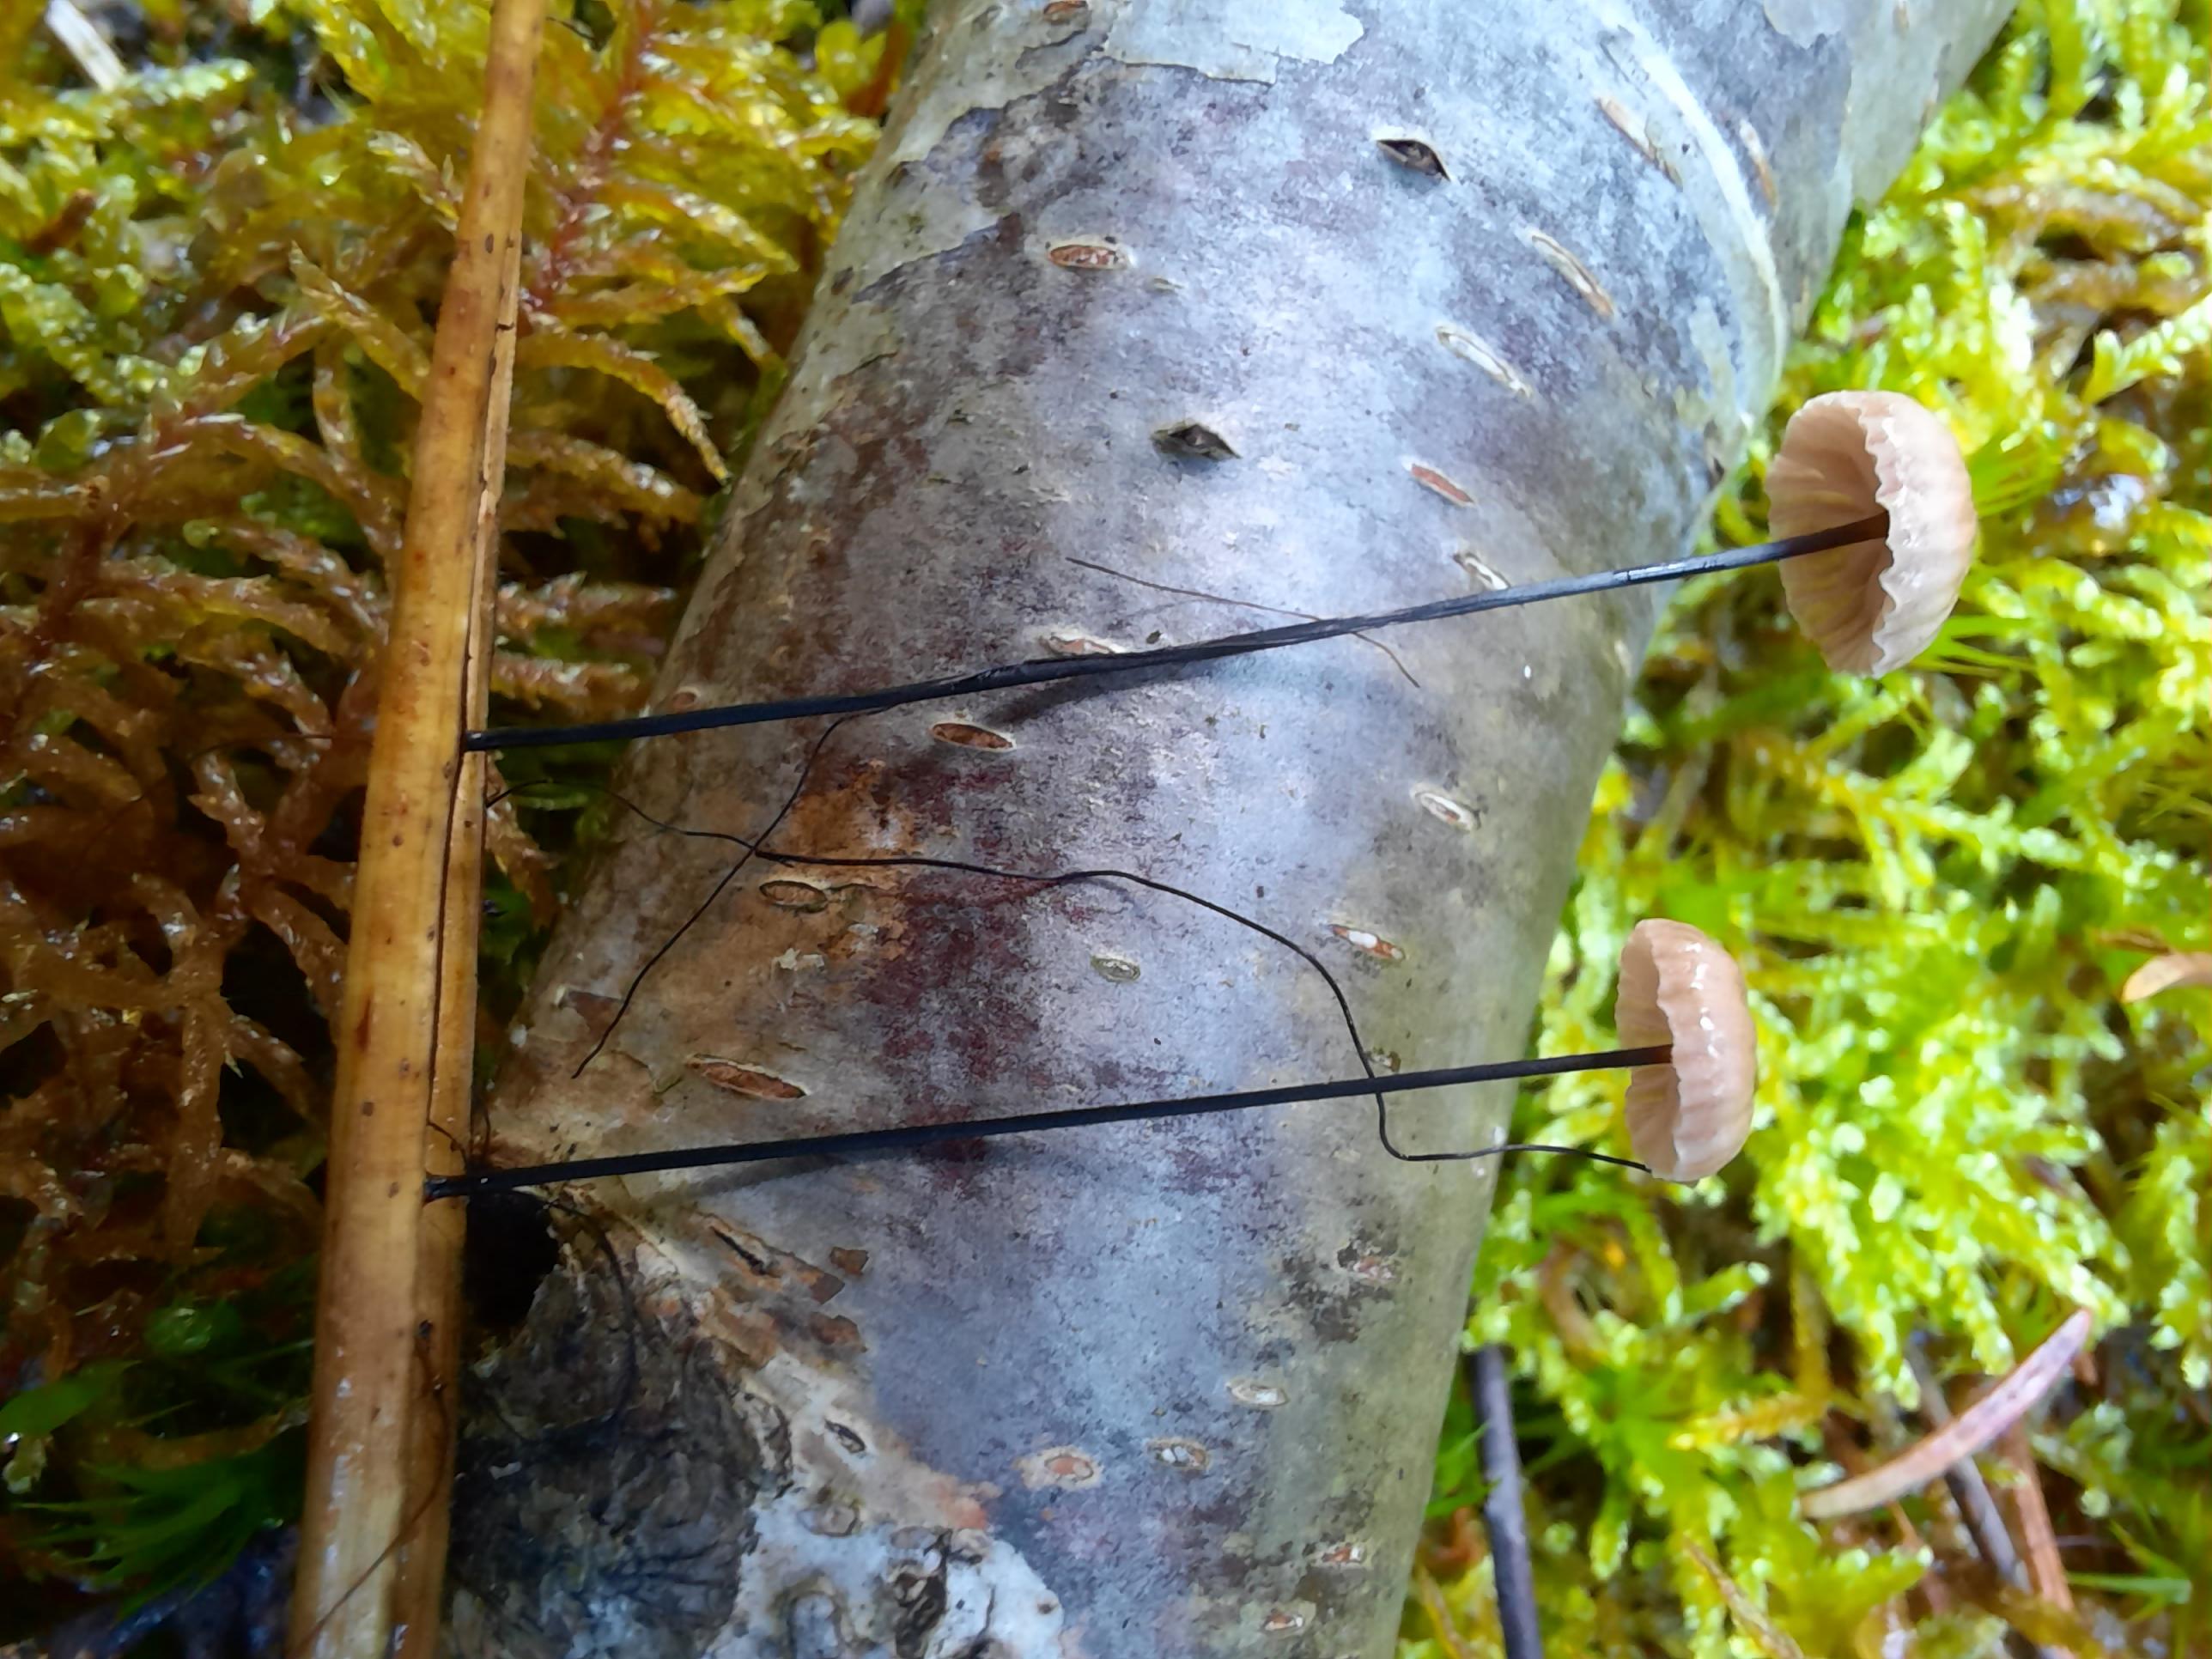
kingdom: Fungi
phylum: Basidiomycota
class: Agaricomycetes
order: Agaricales
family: Omphalotaceae
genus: Gymnopus
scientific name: Gymnopus androsaceus
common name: trådstokket fladhat
